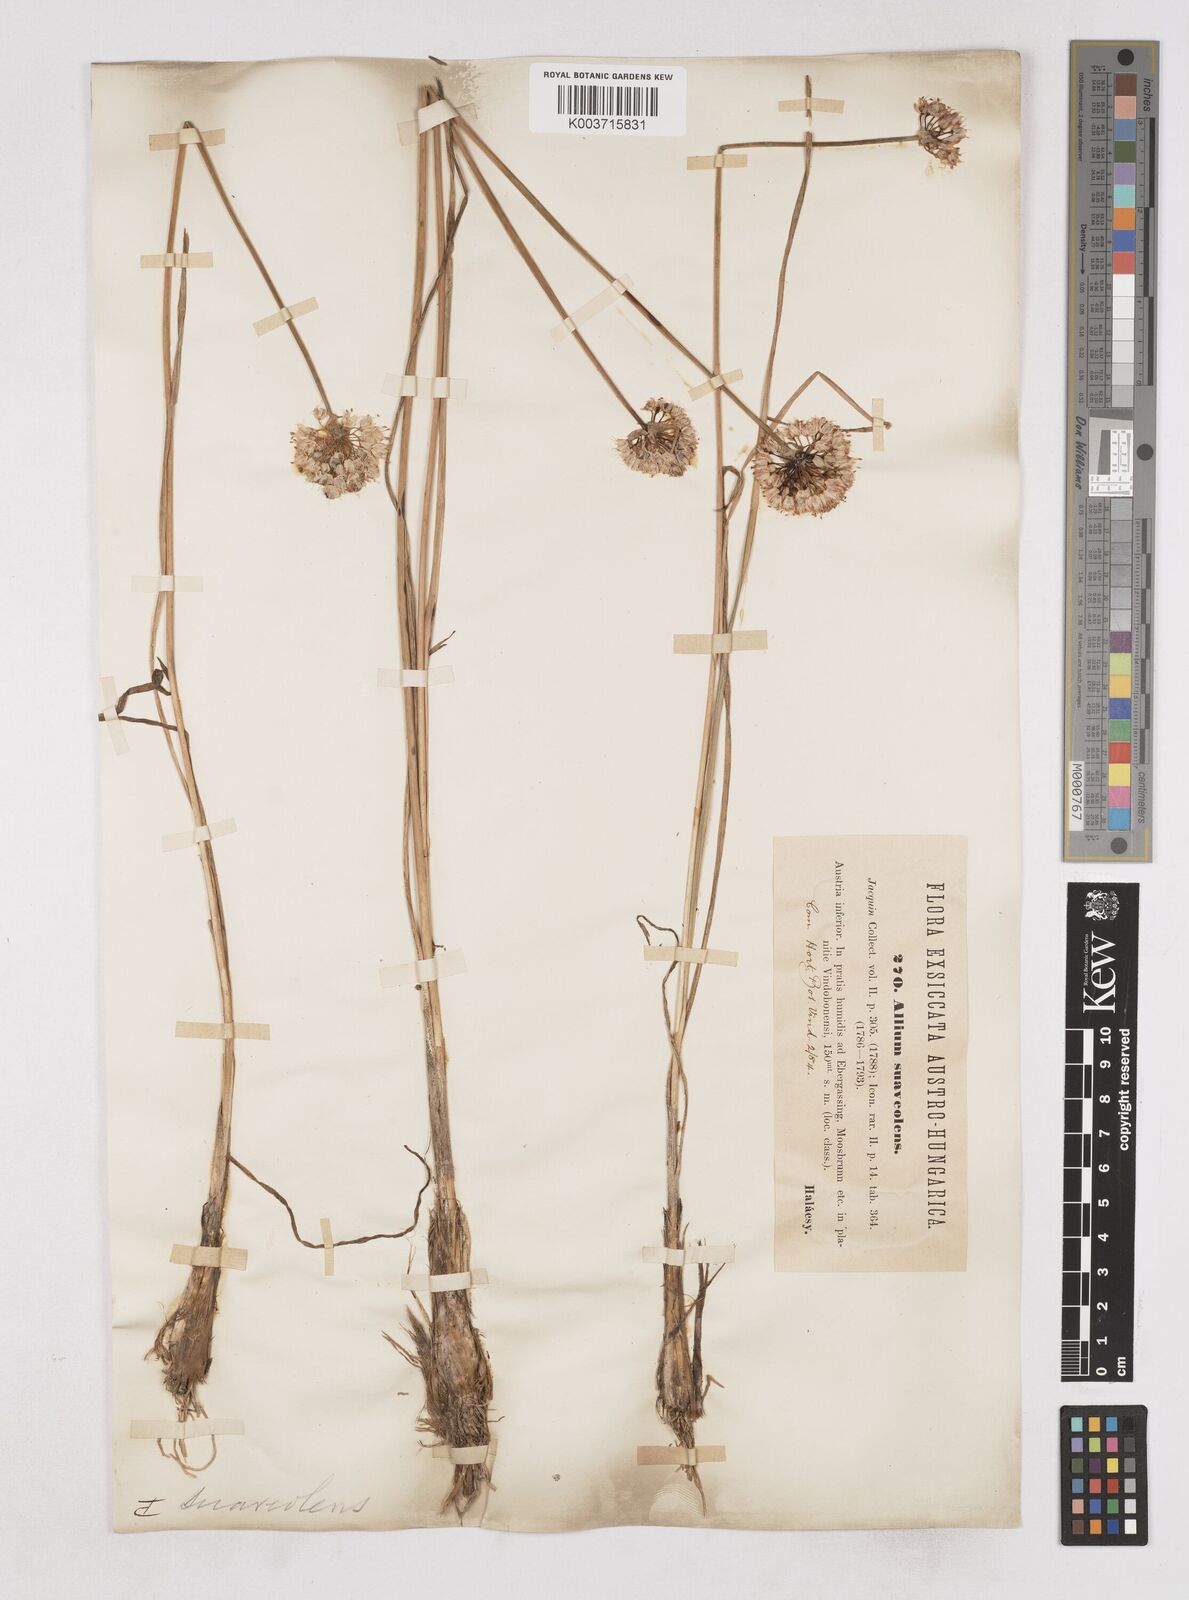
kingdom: Plantae
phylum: Tracheophyta
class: Liliopsida
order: Asparagales
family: Amaryllidaceae
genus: Allium
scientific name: Allium suaveolens
